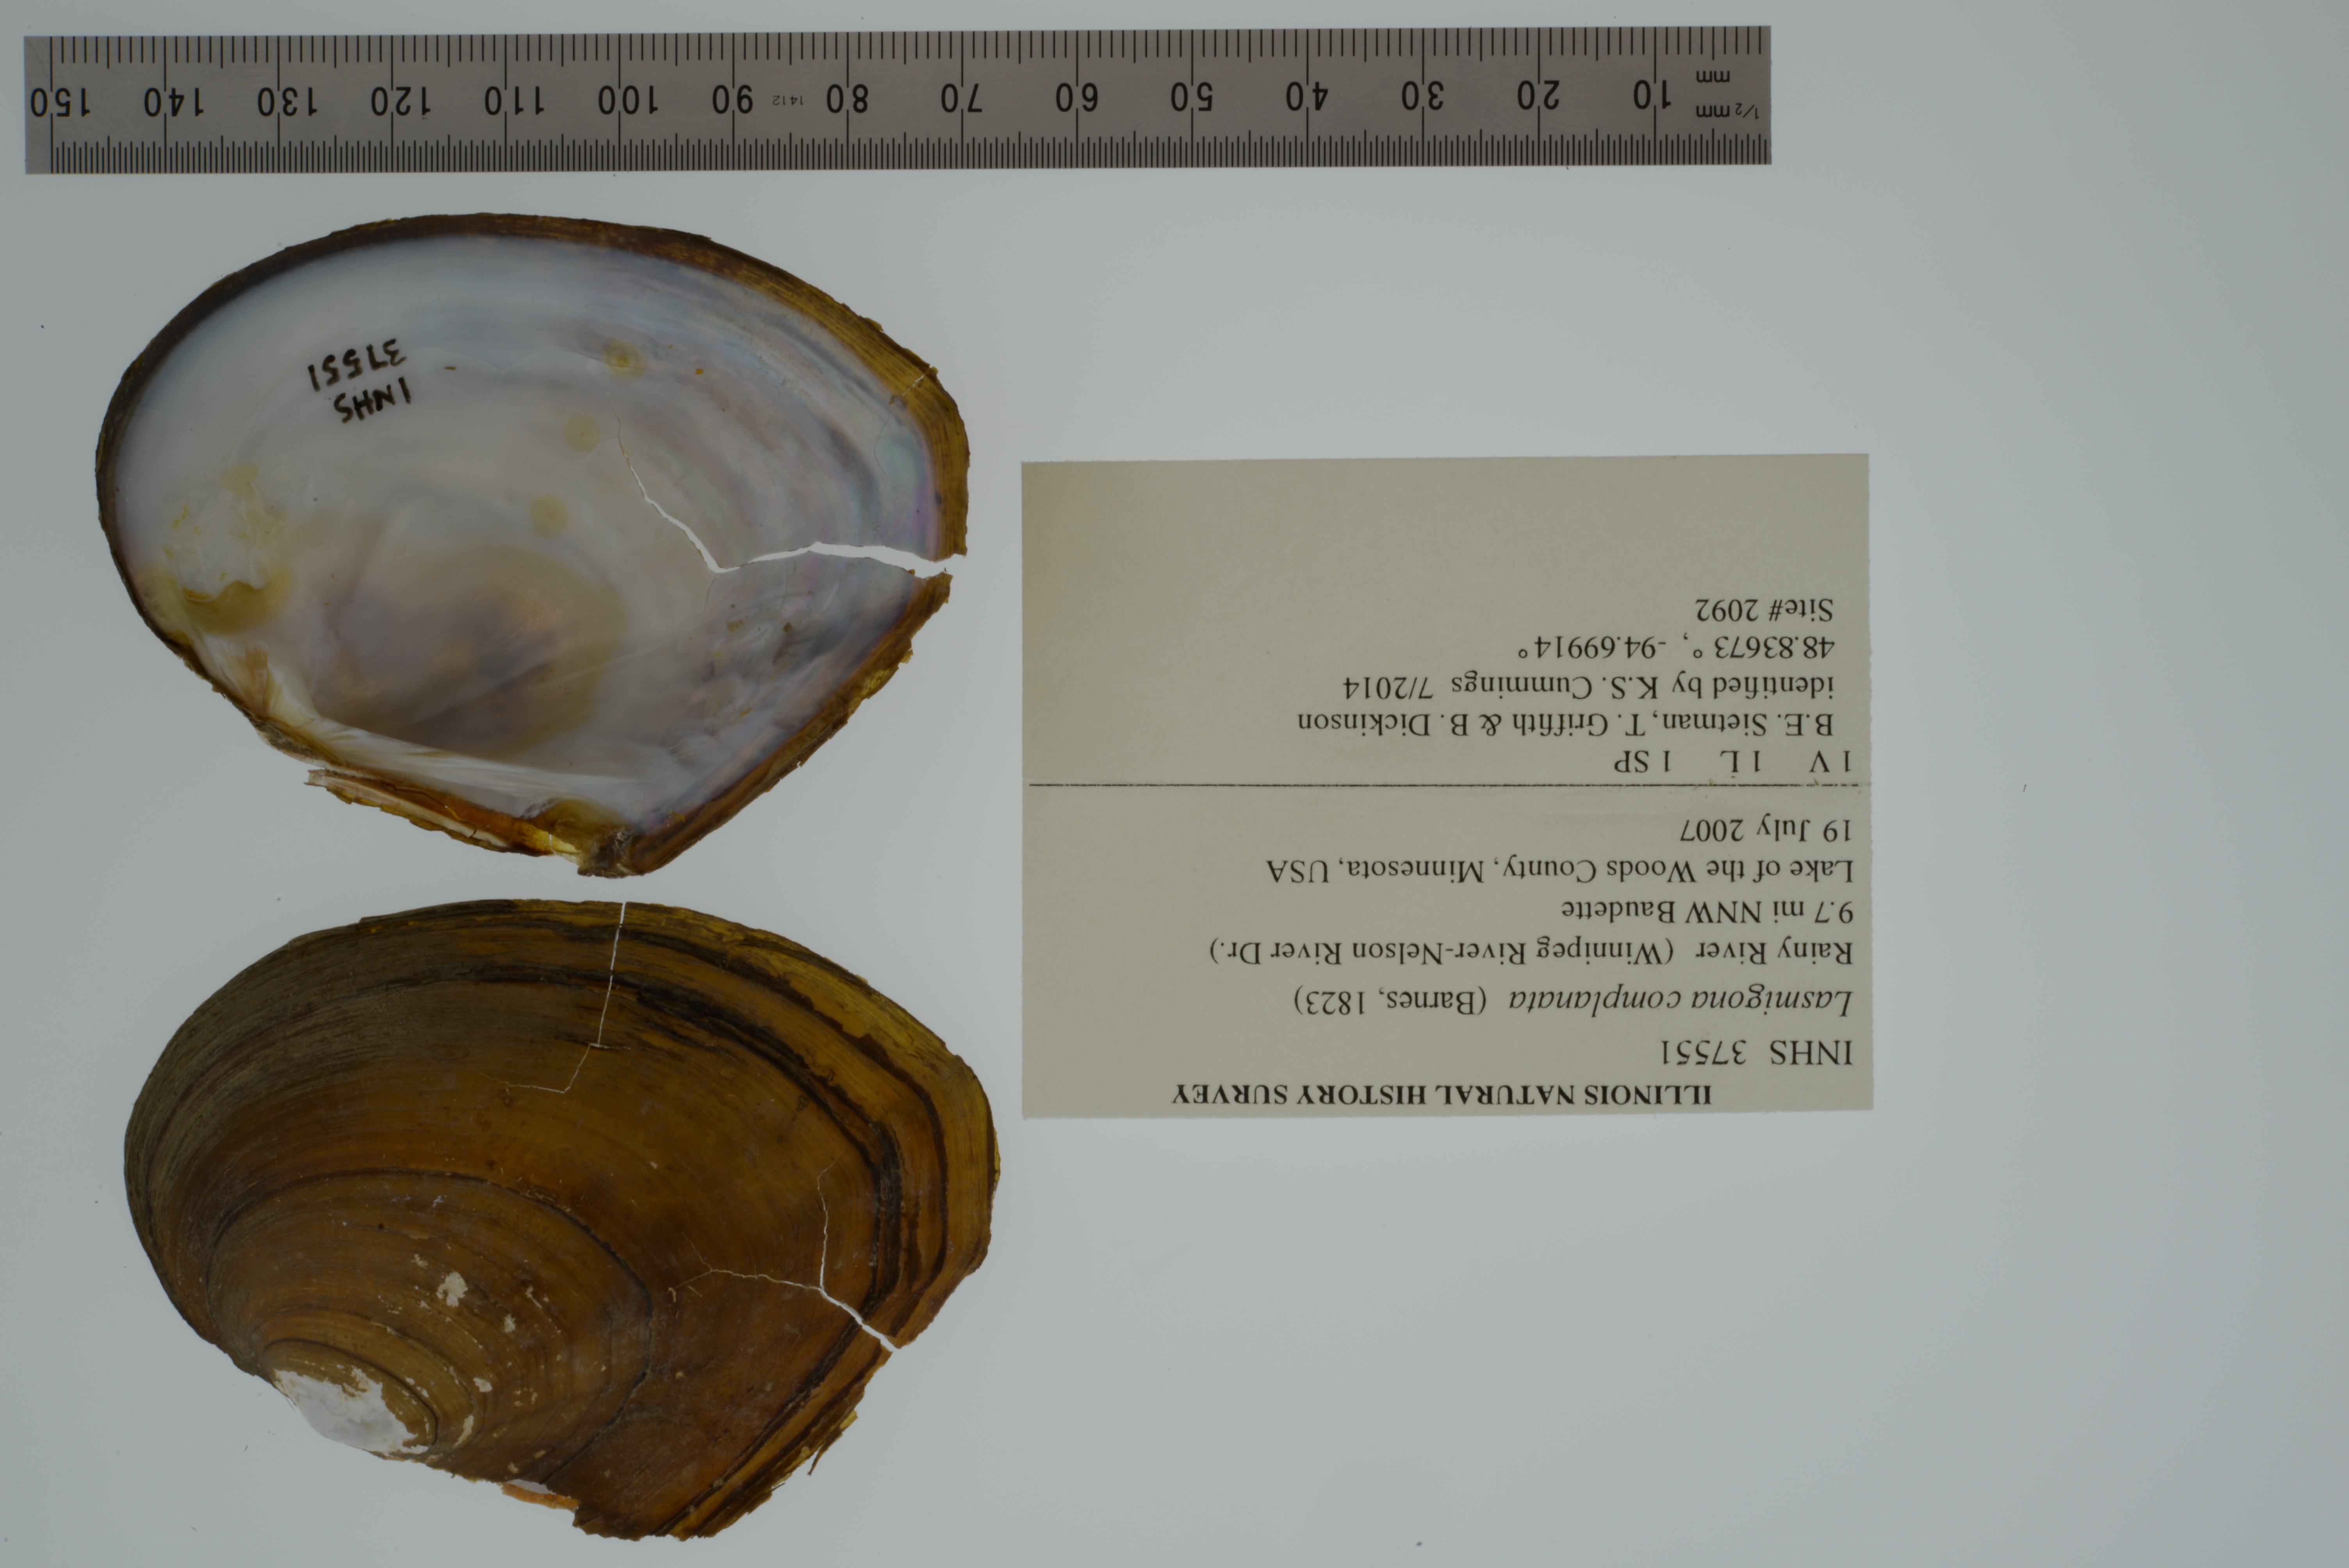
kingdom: Animalia
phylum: Mollusca
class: Bivalvia
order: Unionida
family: Unionidae
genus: Lasmigona
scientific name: Lasmigona complanata
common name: White heelsplitter
